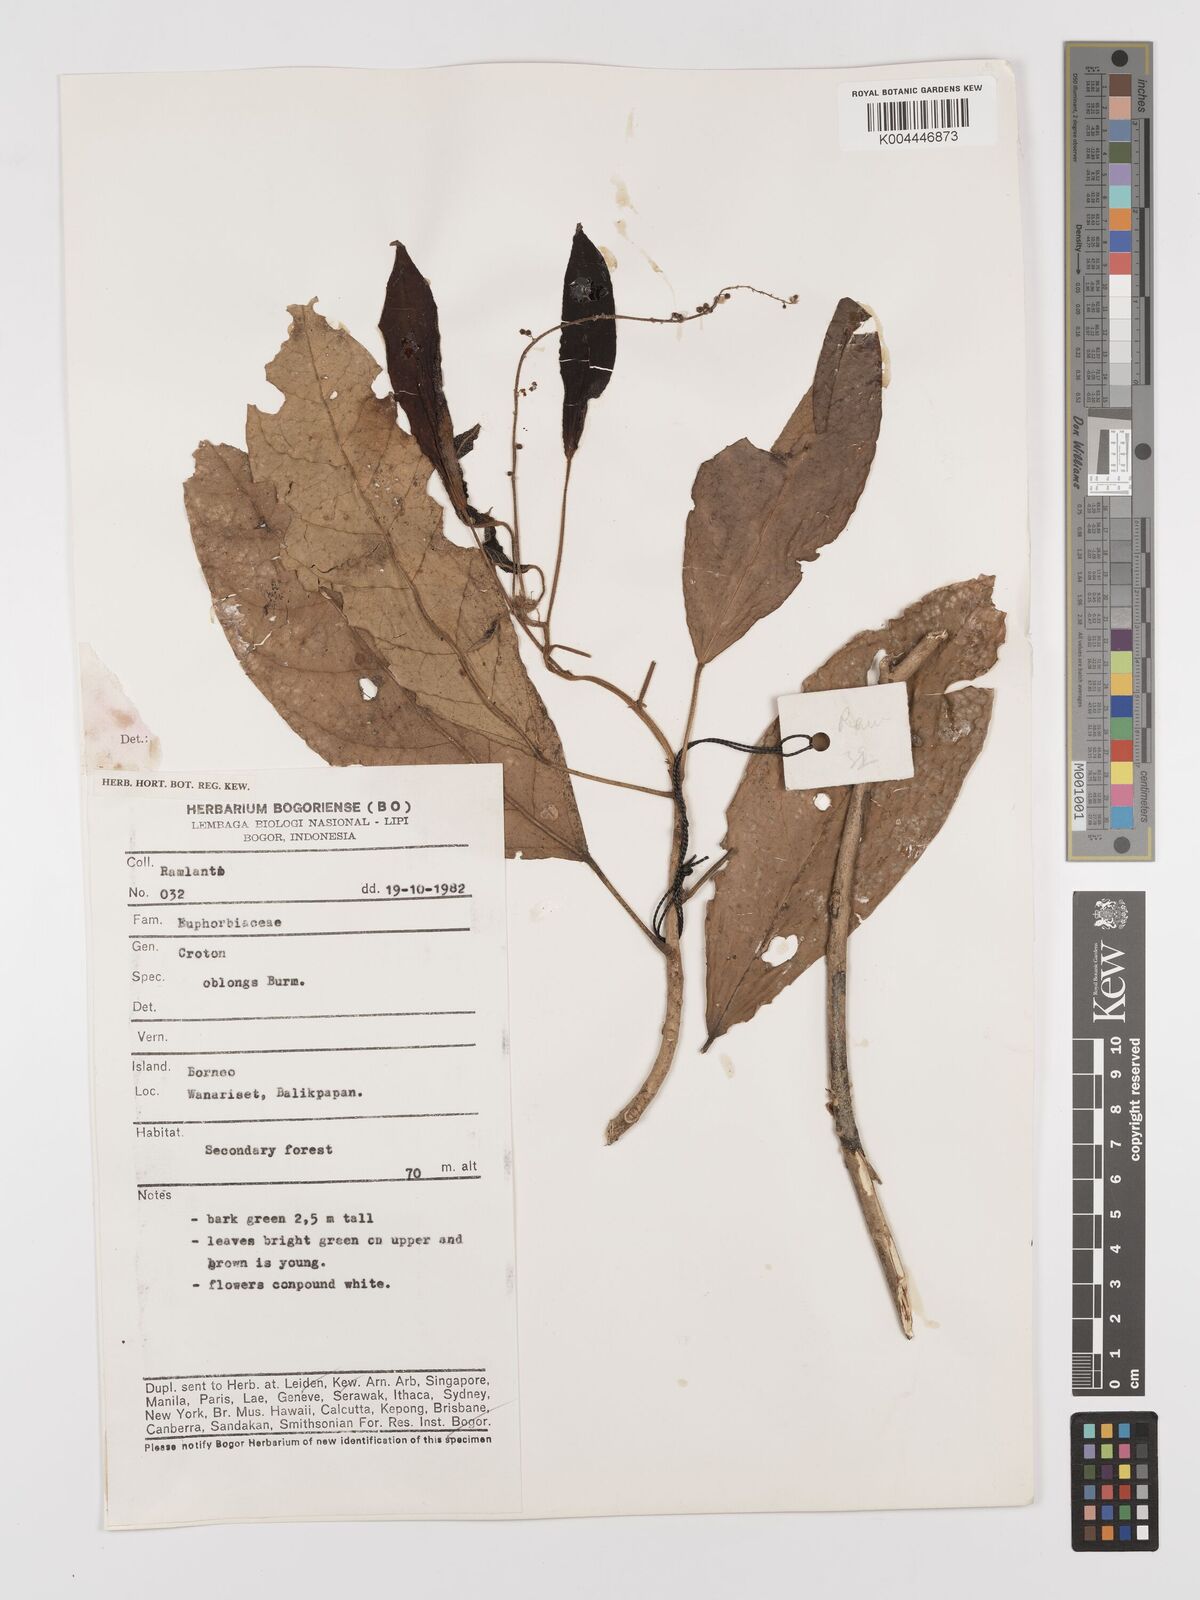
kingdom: Plantae
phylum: Tracheophyta
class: Magnoliopsida
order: Malpighiales
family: Euphorbiaceae
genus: Croton
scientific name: Croton oblongus
